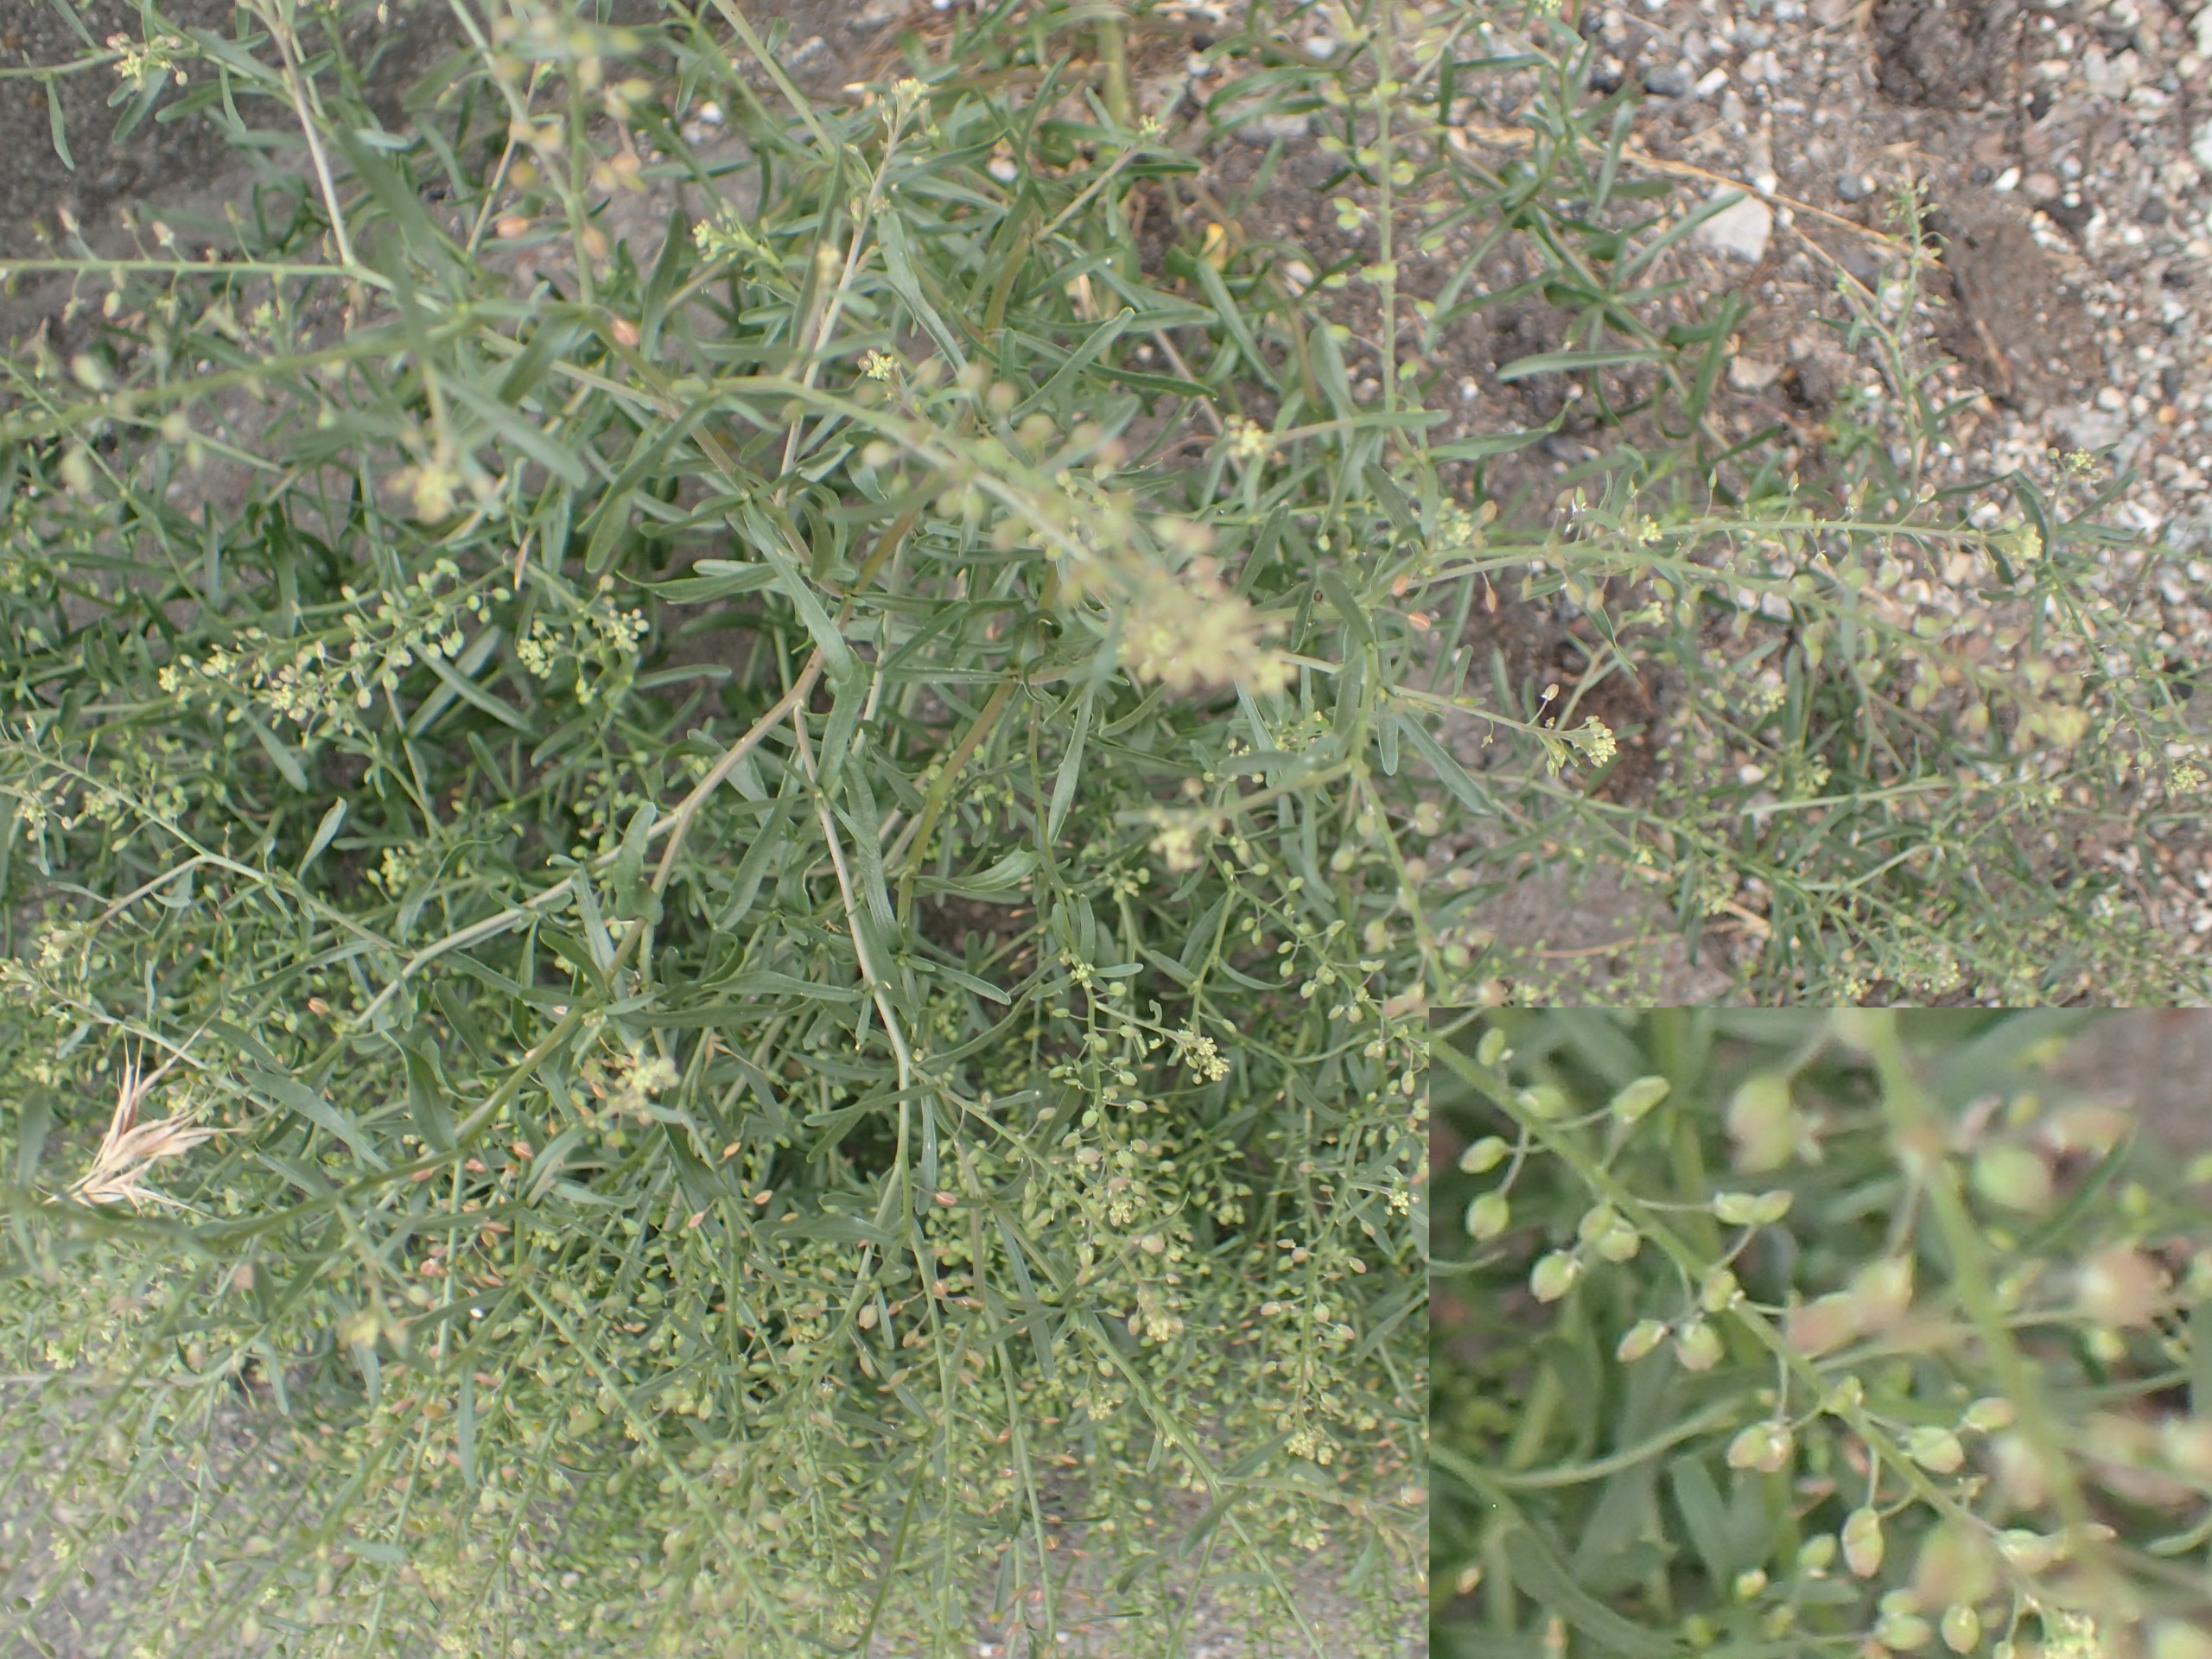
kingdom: Plantae
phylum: Tracheophyta
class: Magnoliopsida
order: Brassicales
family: Brassicaceae
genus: Lepidium
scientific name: Lepidium ruderale
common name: Stinkende karse
